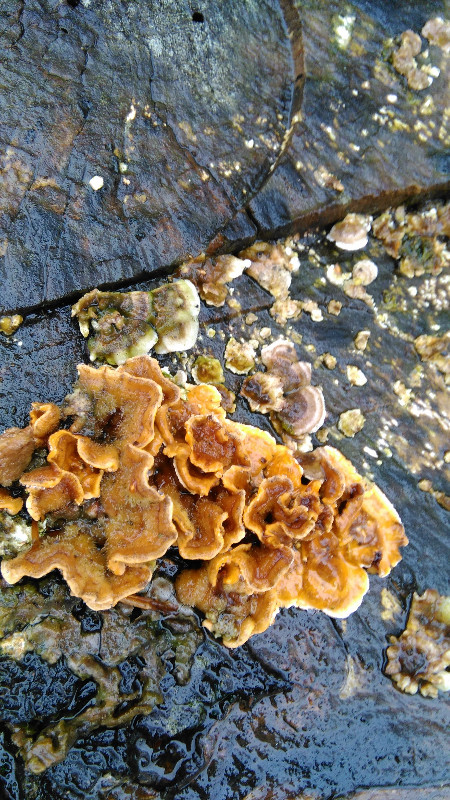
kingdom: Fungi
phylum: Basidiomycota
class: Agaricomycetes
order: Russulales
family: Stereaceae
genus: Stereum
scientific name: Stereum hirsutum
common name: håret lædersvamp
